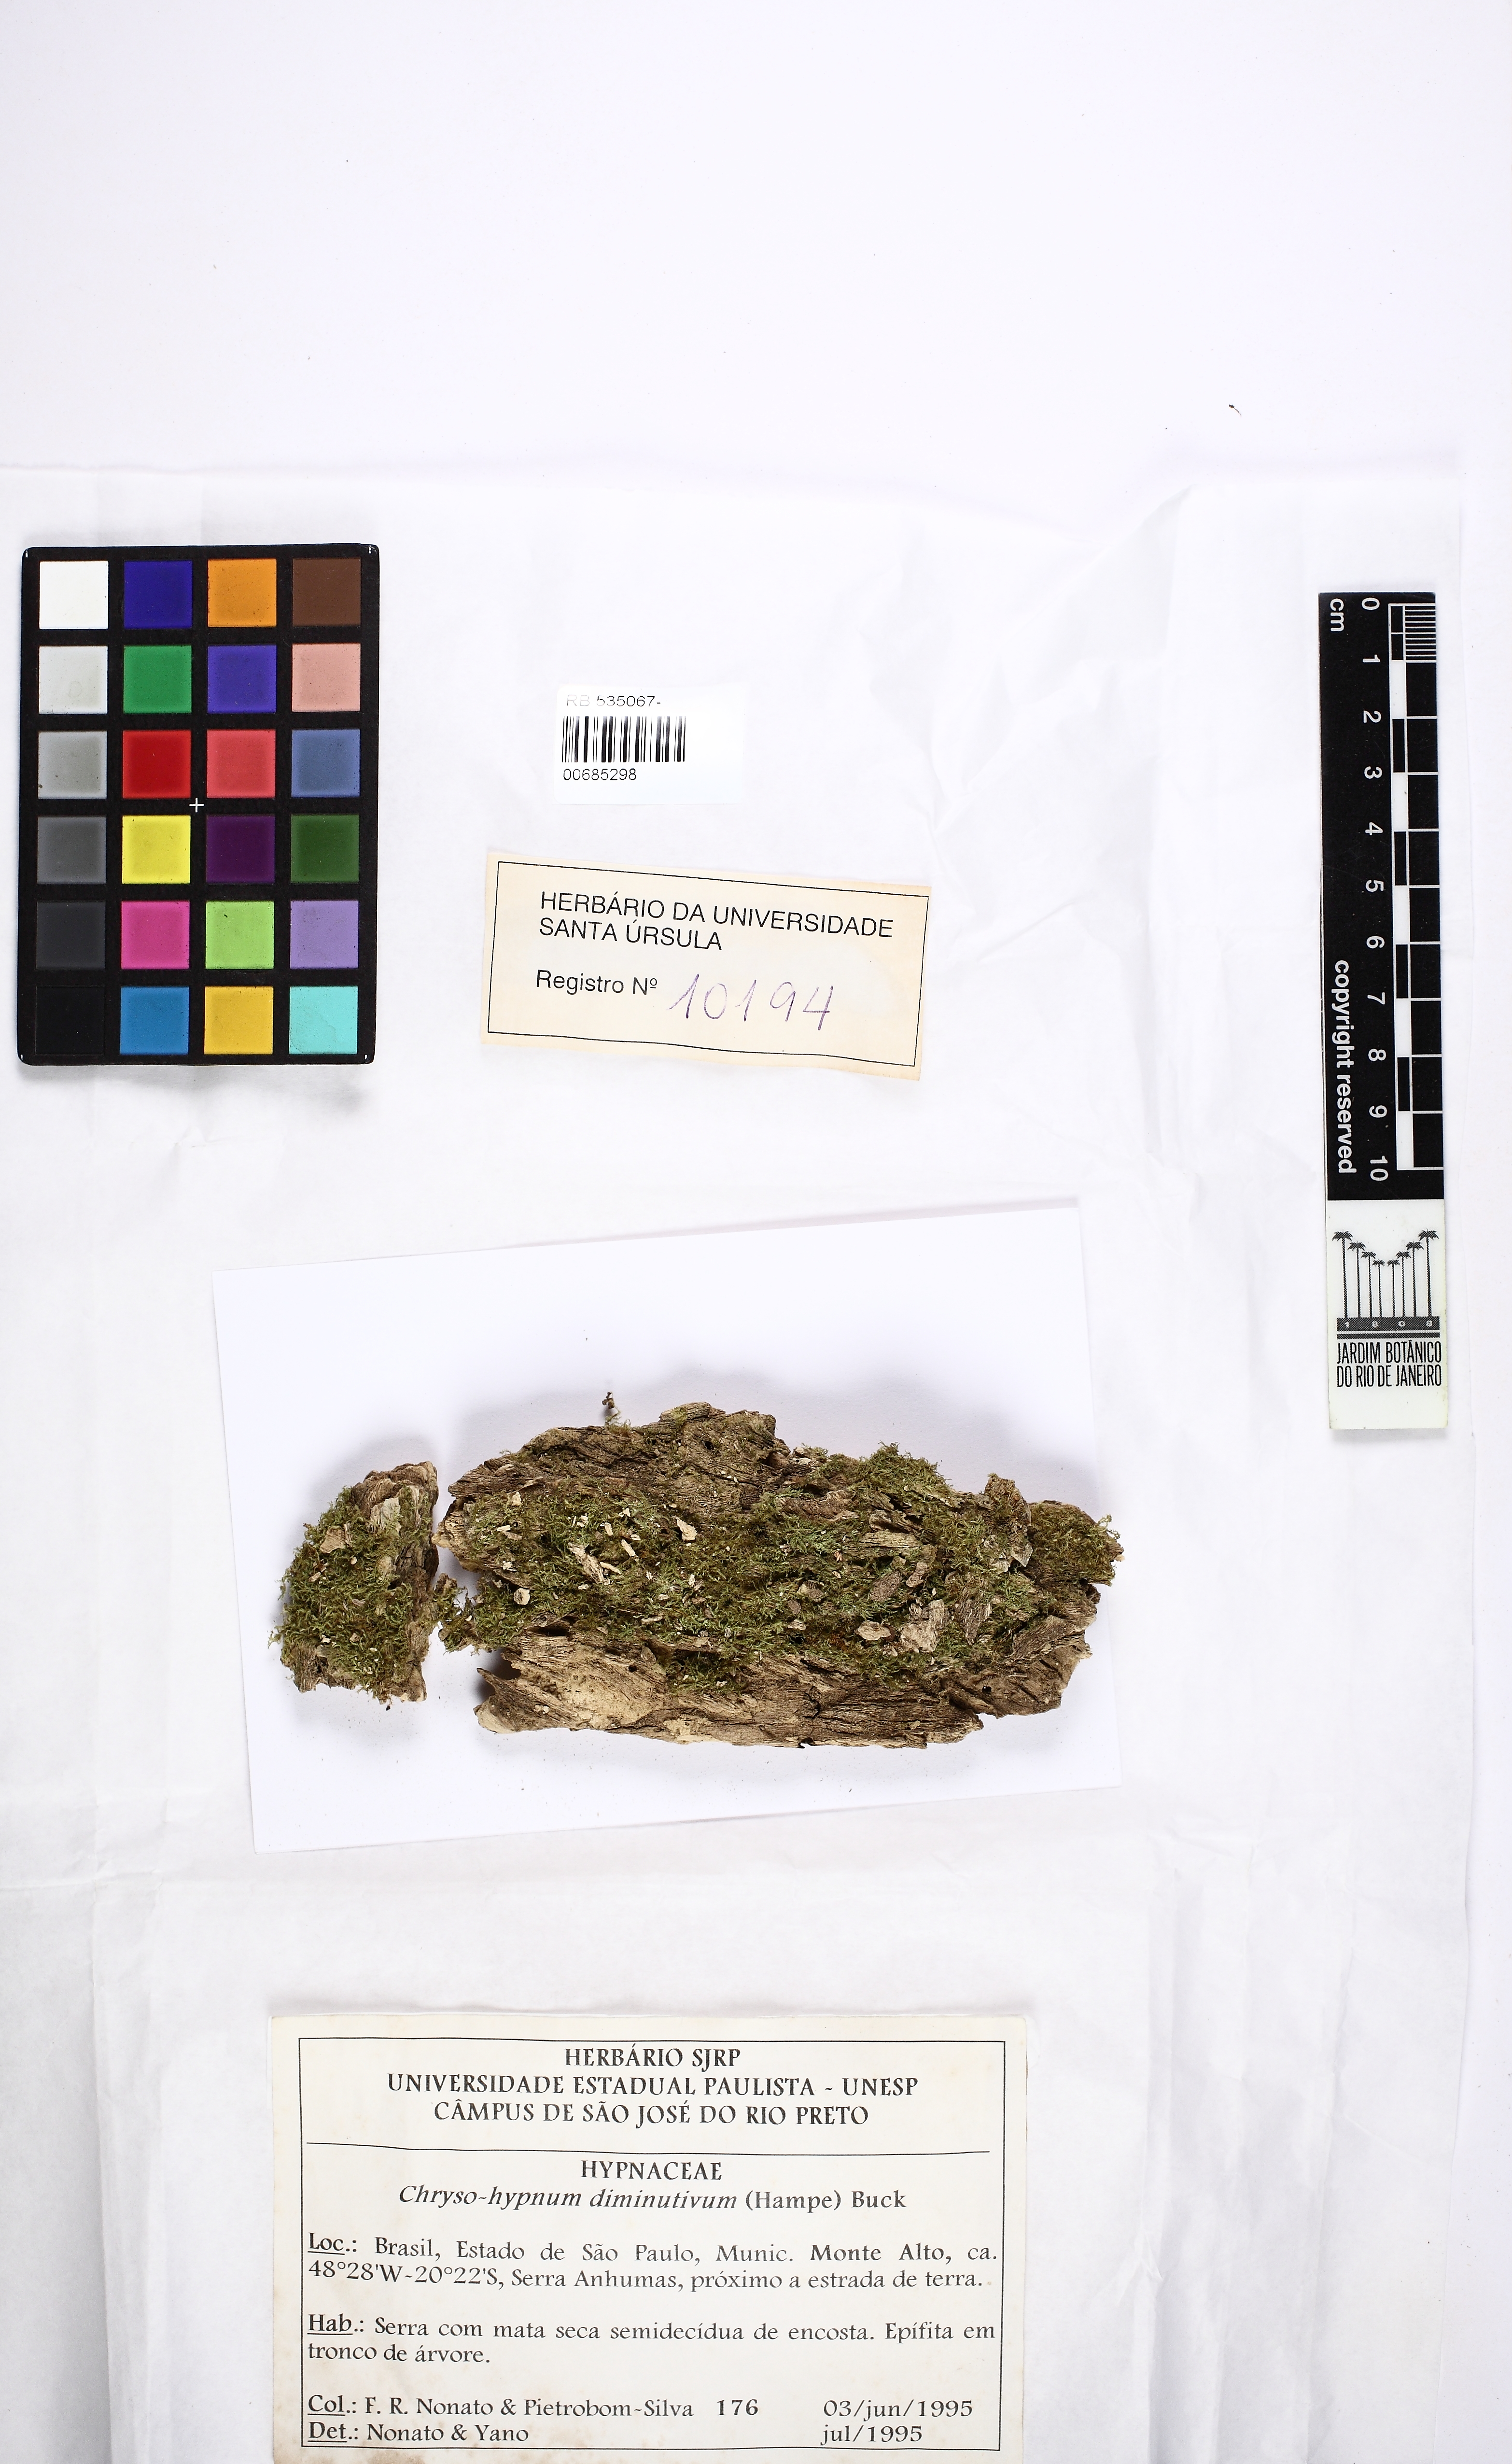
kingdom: Plantae
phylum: Bryophyta
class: Bryopsida
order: Hypnales
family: Hypnaceae
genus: Chryso-hypnum
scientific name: Chryso-hypnum diminutivum
